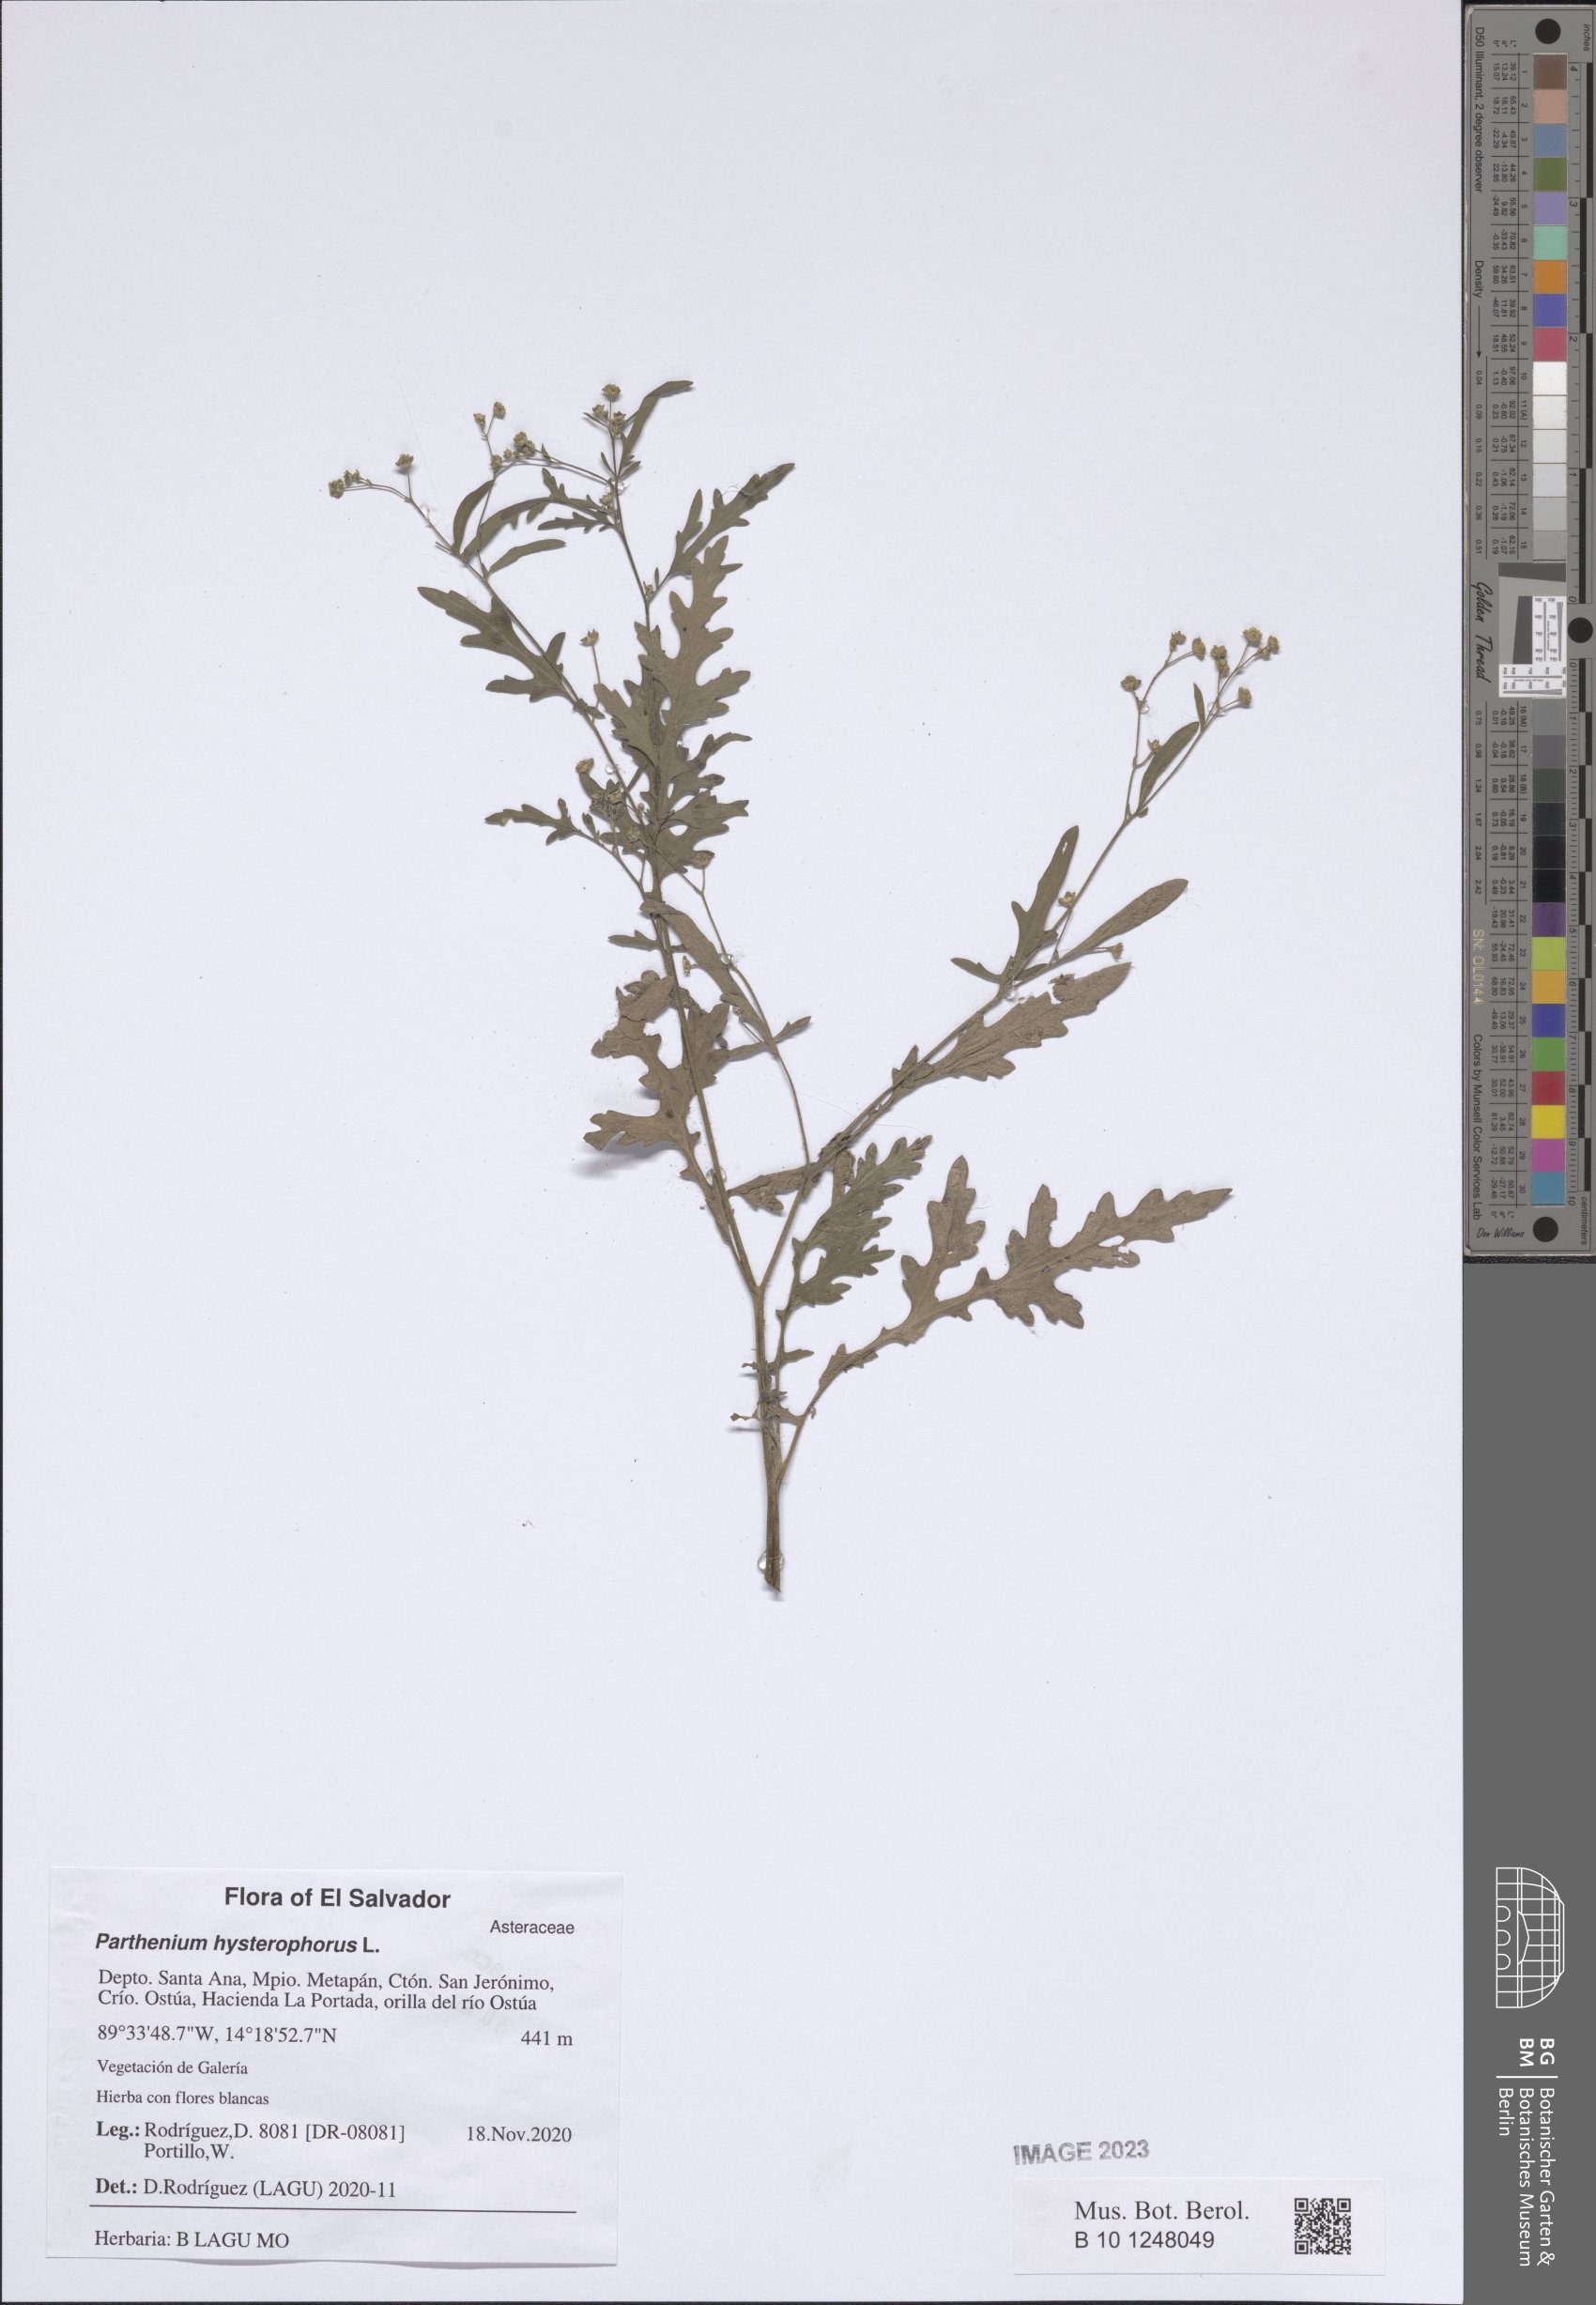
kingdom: Plantae
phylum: Tracheophyta
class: Magnoliopsida
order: Asterales
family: Asteraceae
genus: Parthenium
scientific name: Parthenium hysterophorus
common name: Santa maria feverfew
